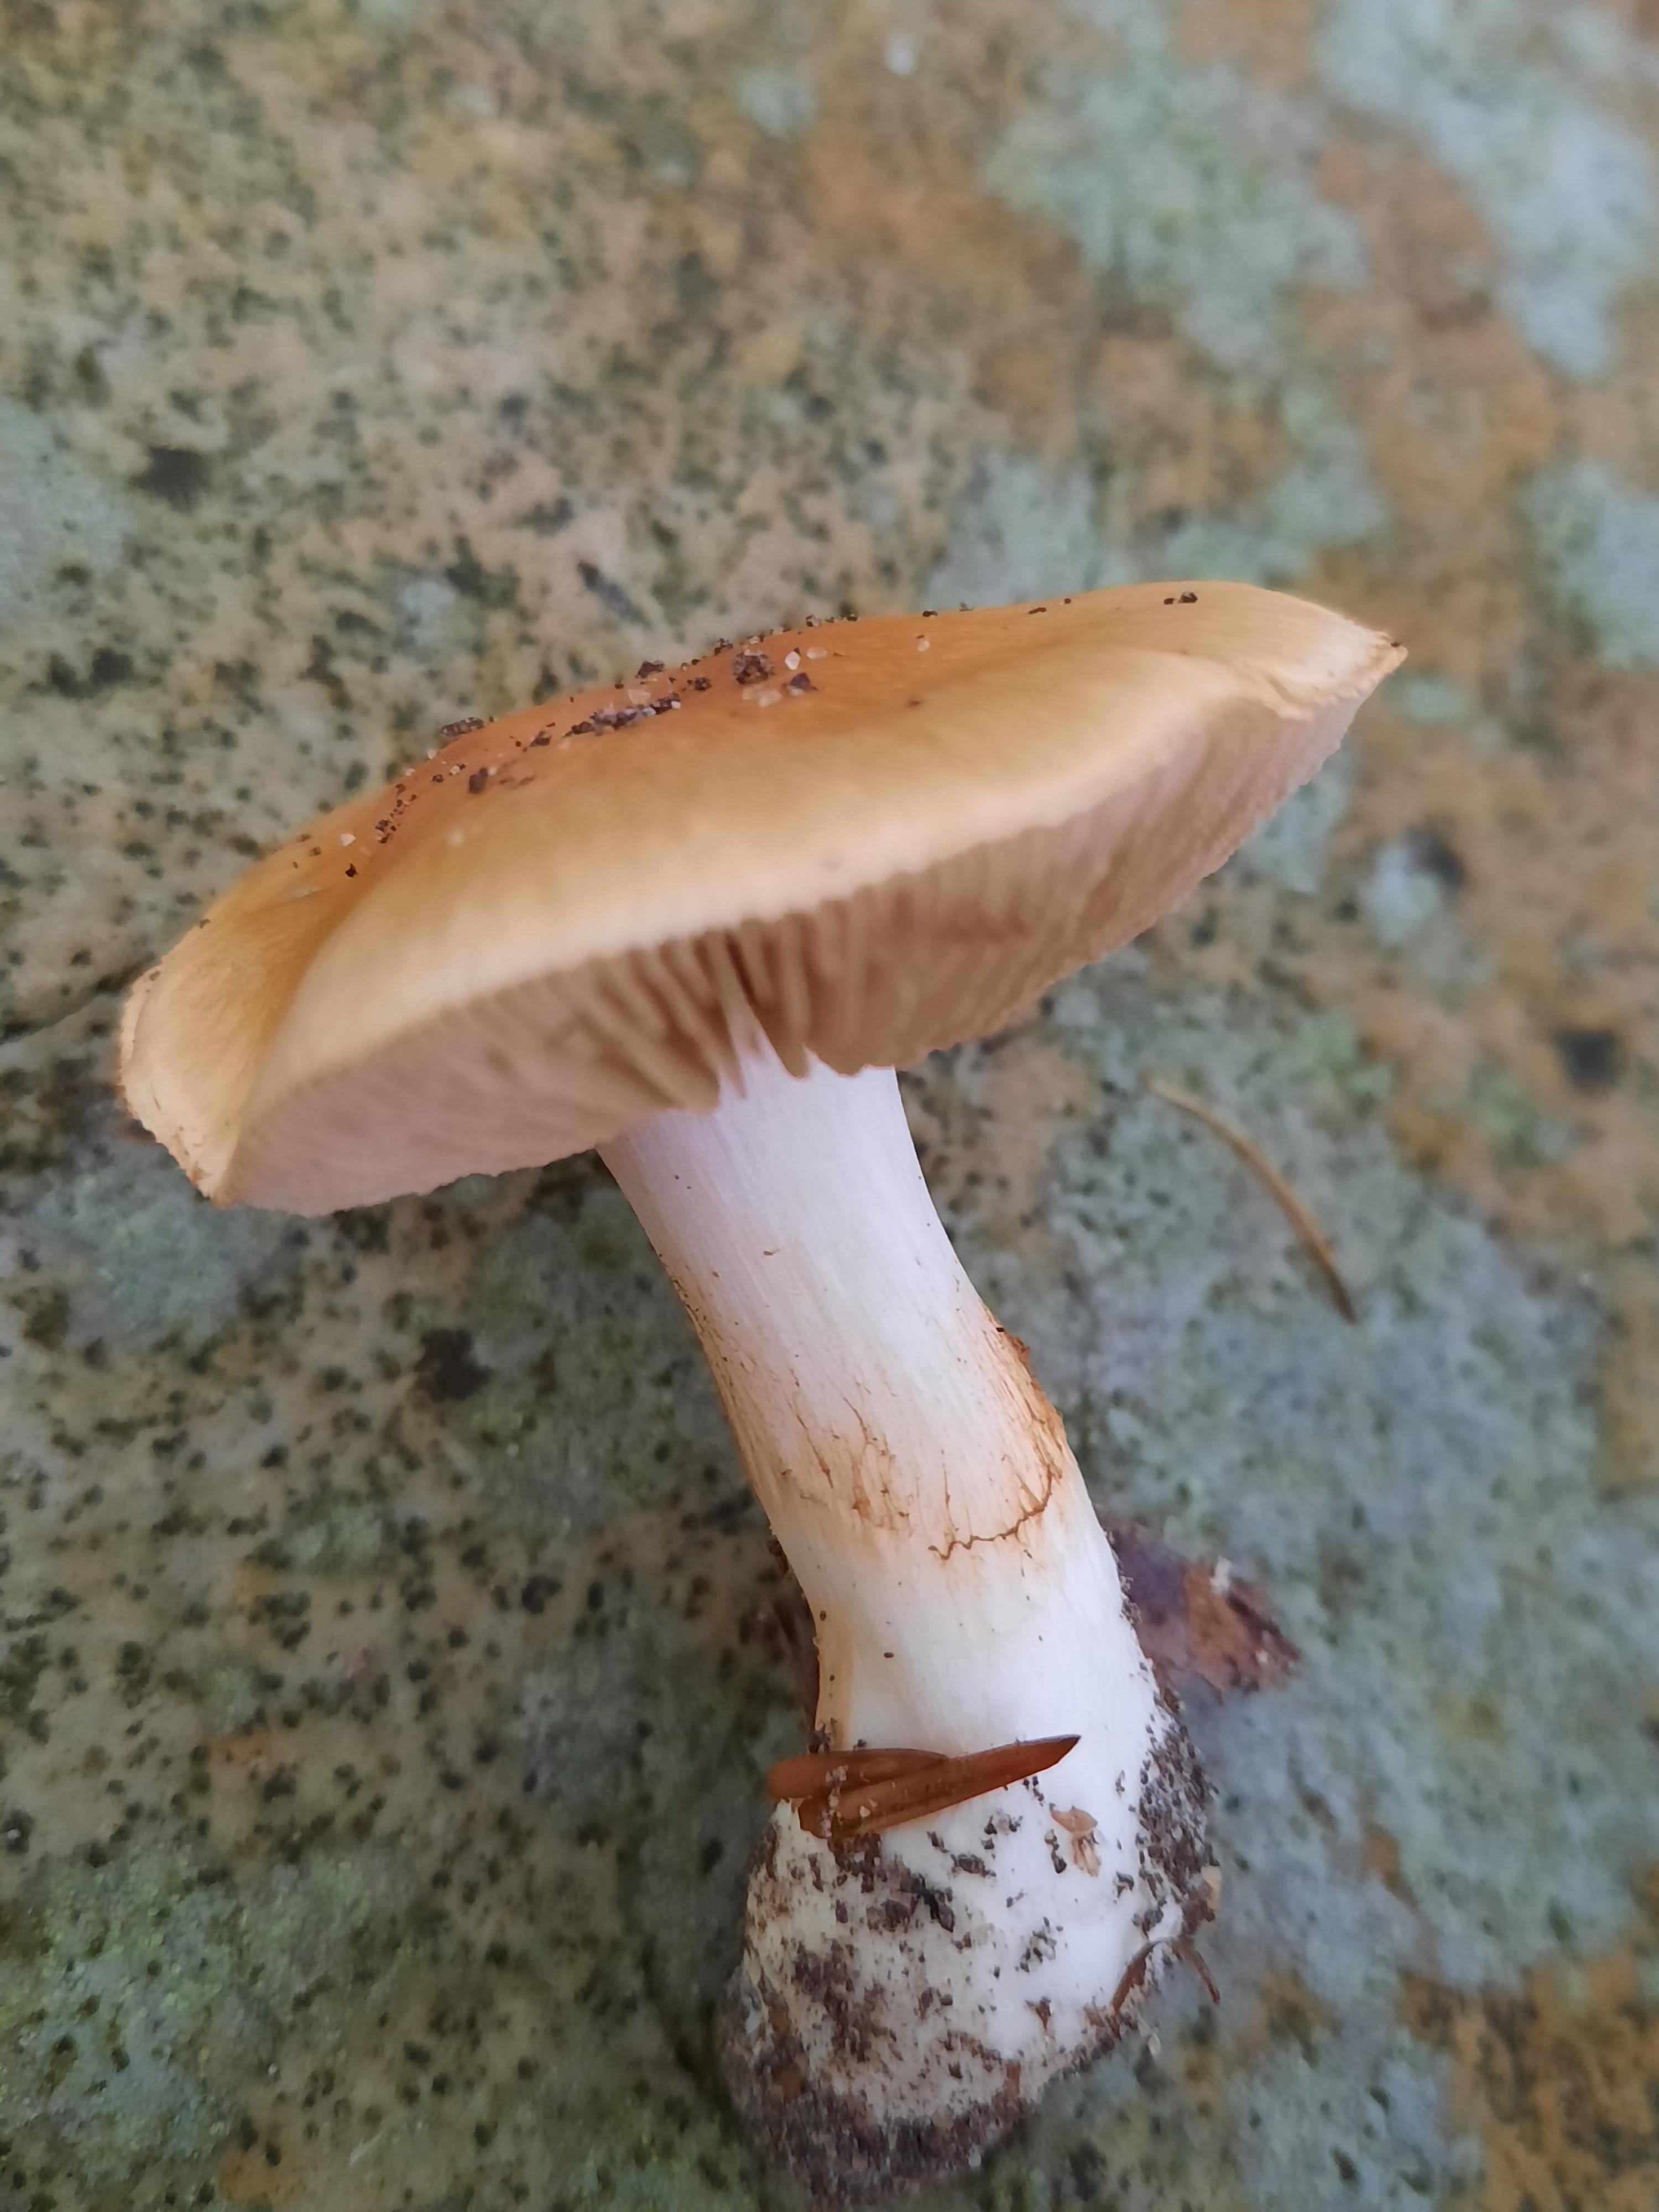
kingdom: Fungi
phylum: Basidiomycota
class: Agaricomycetes
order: Agaricales
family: Cortinariaceae
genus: Thaxterogaster
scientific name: Thaxterogaster emollitus
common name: besk slørhat
